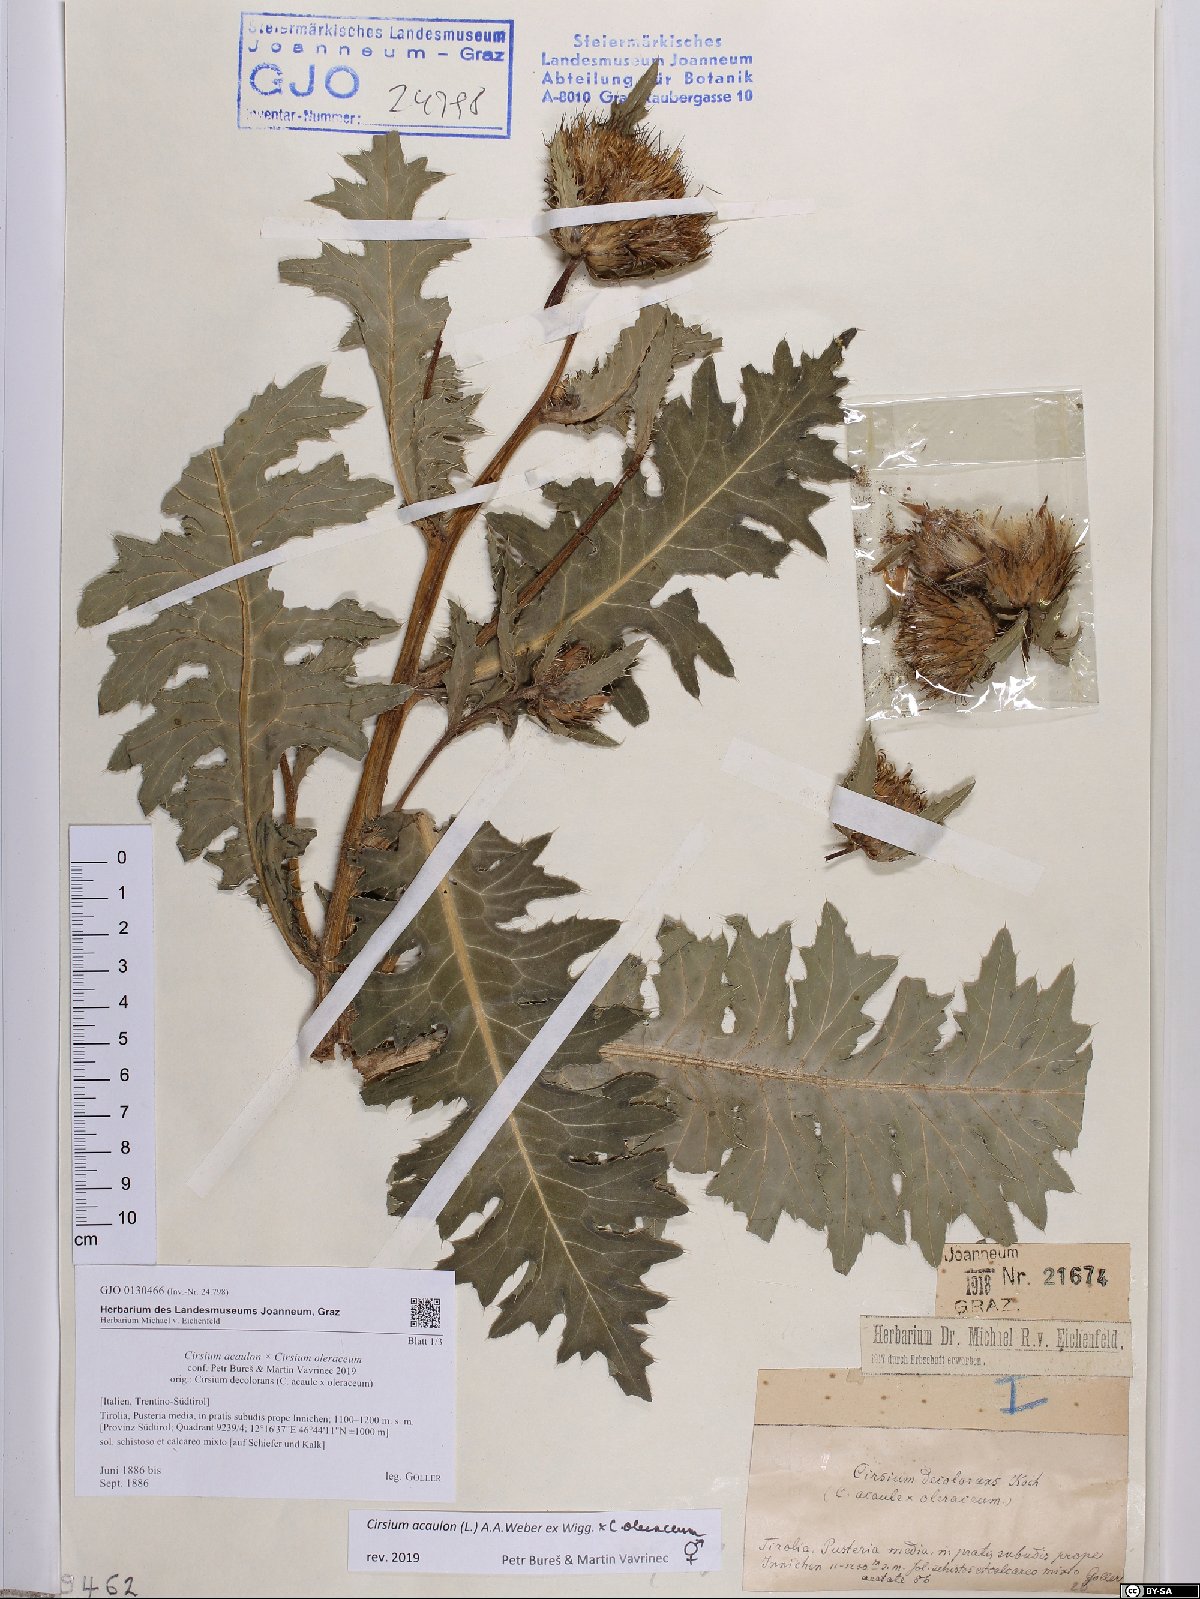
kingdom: Plantae
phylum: Tracheophyta
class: Magnoliopsida
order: Asterales
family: Asteraceae
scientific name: Asteraceae
